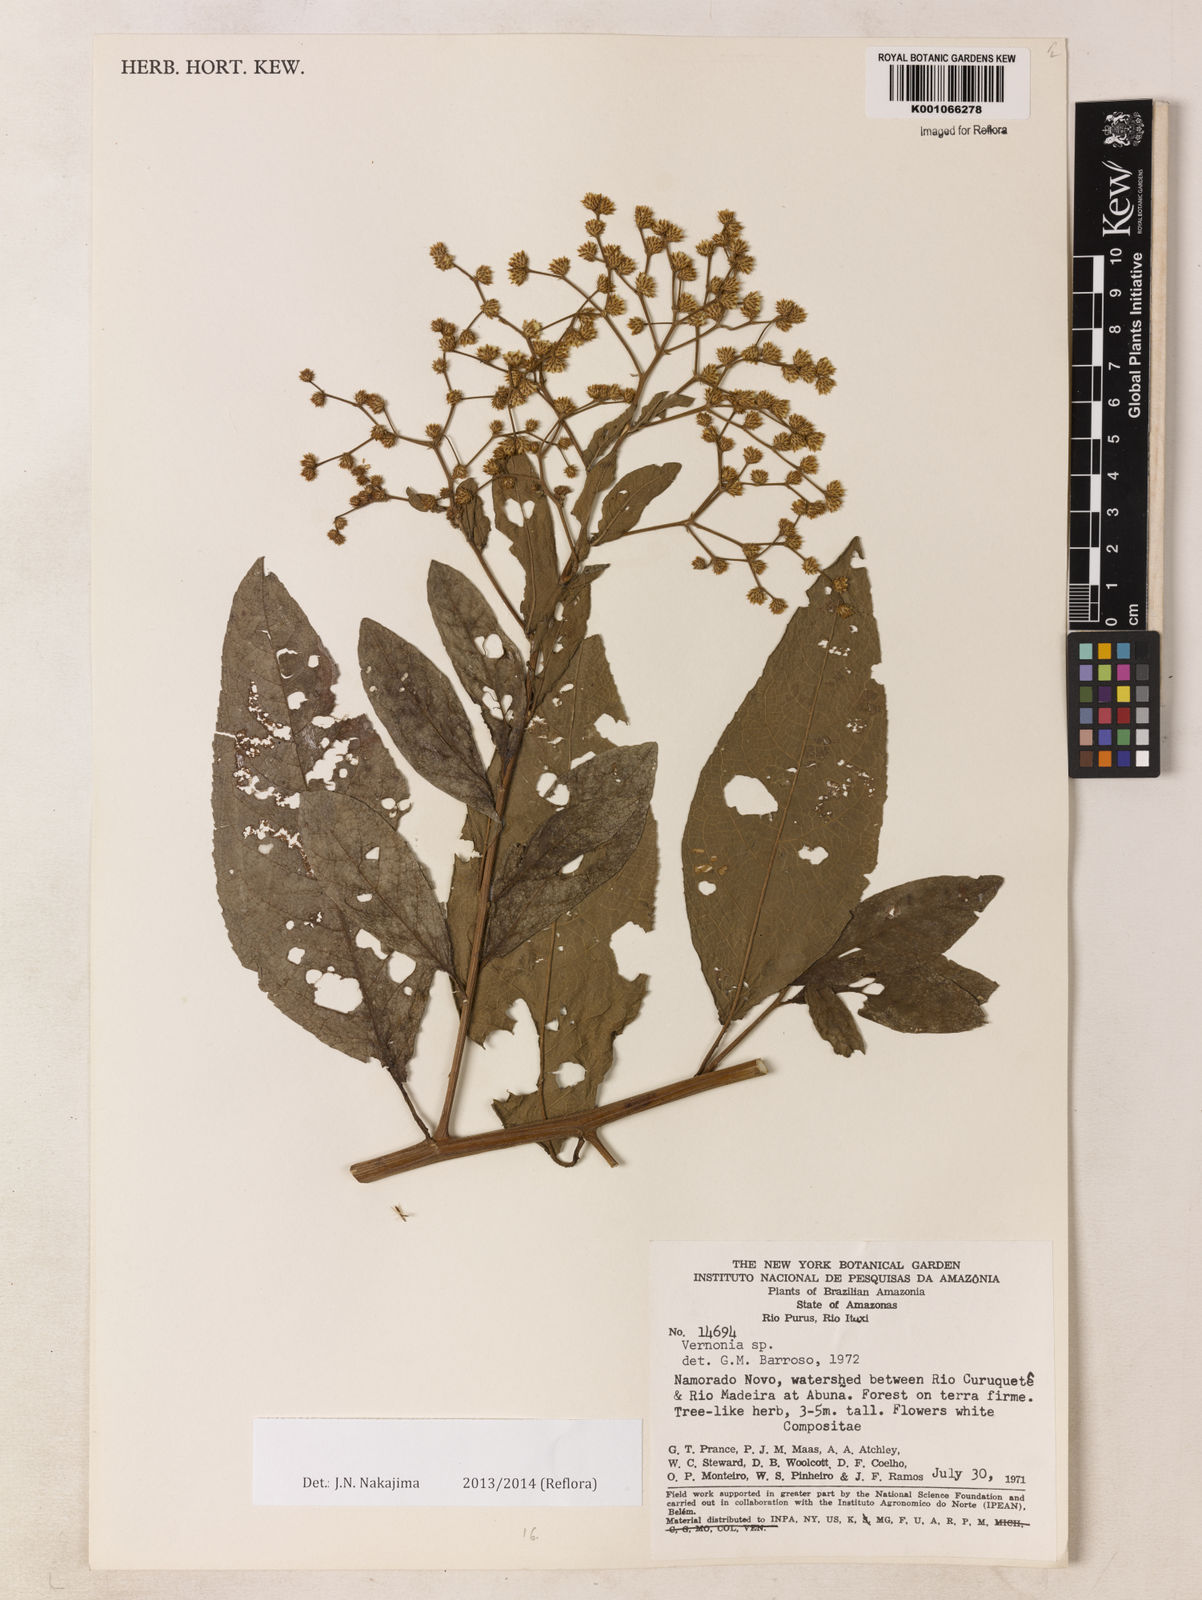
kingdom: Plantae
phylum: Tracheophyta
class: Magnoliopsida
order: Asterales
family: Asteraceae
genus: Vernonia
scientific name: Vernonia
